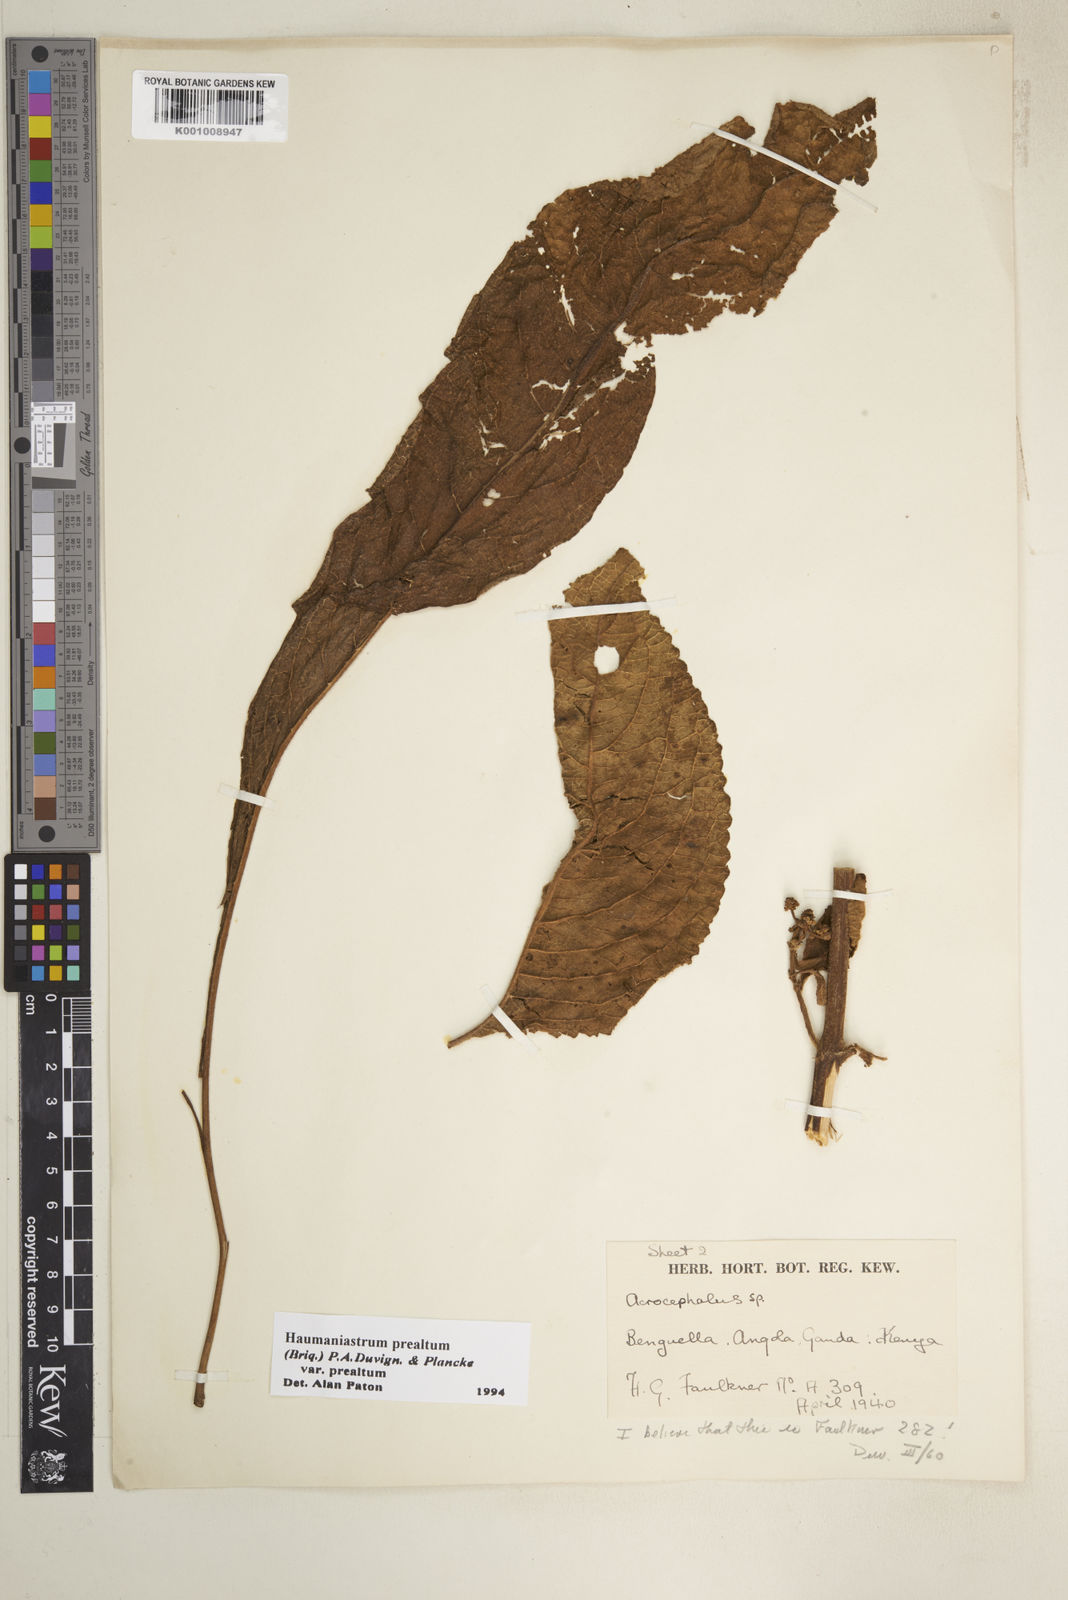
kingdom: Plantae
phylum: Tracheophyta
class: Magnoliopsida
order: Lamiales
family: Lamiaceae
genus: Haumaniastrum
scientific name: Haumaniastrum
